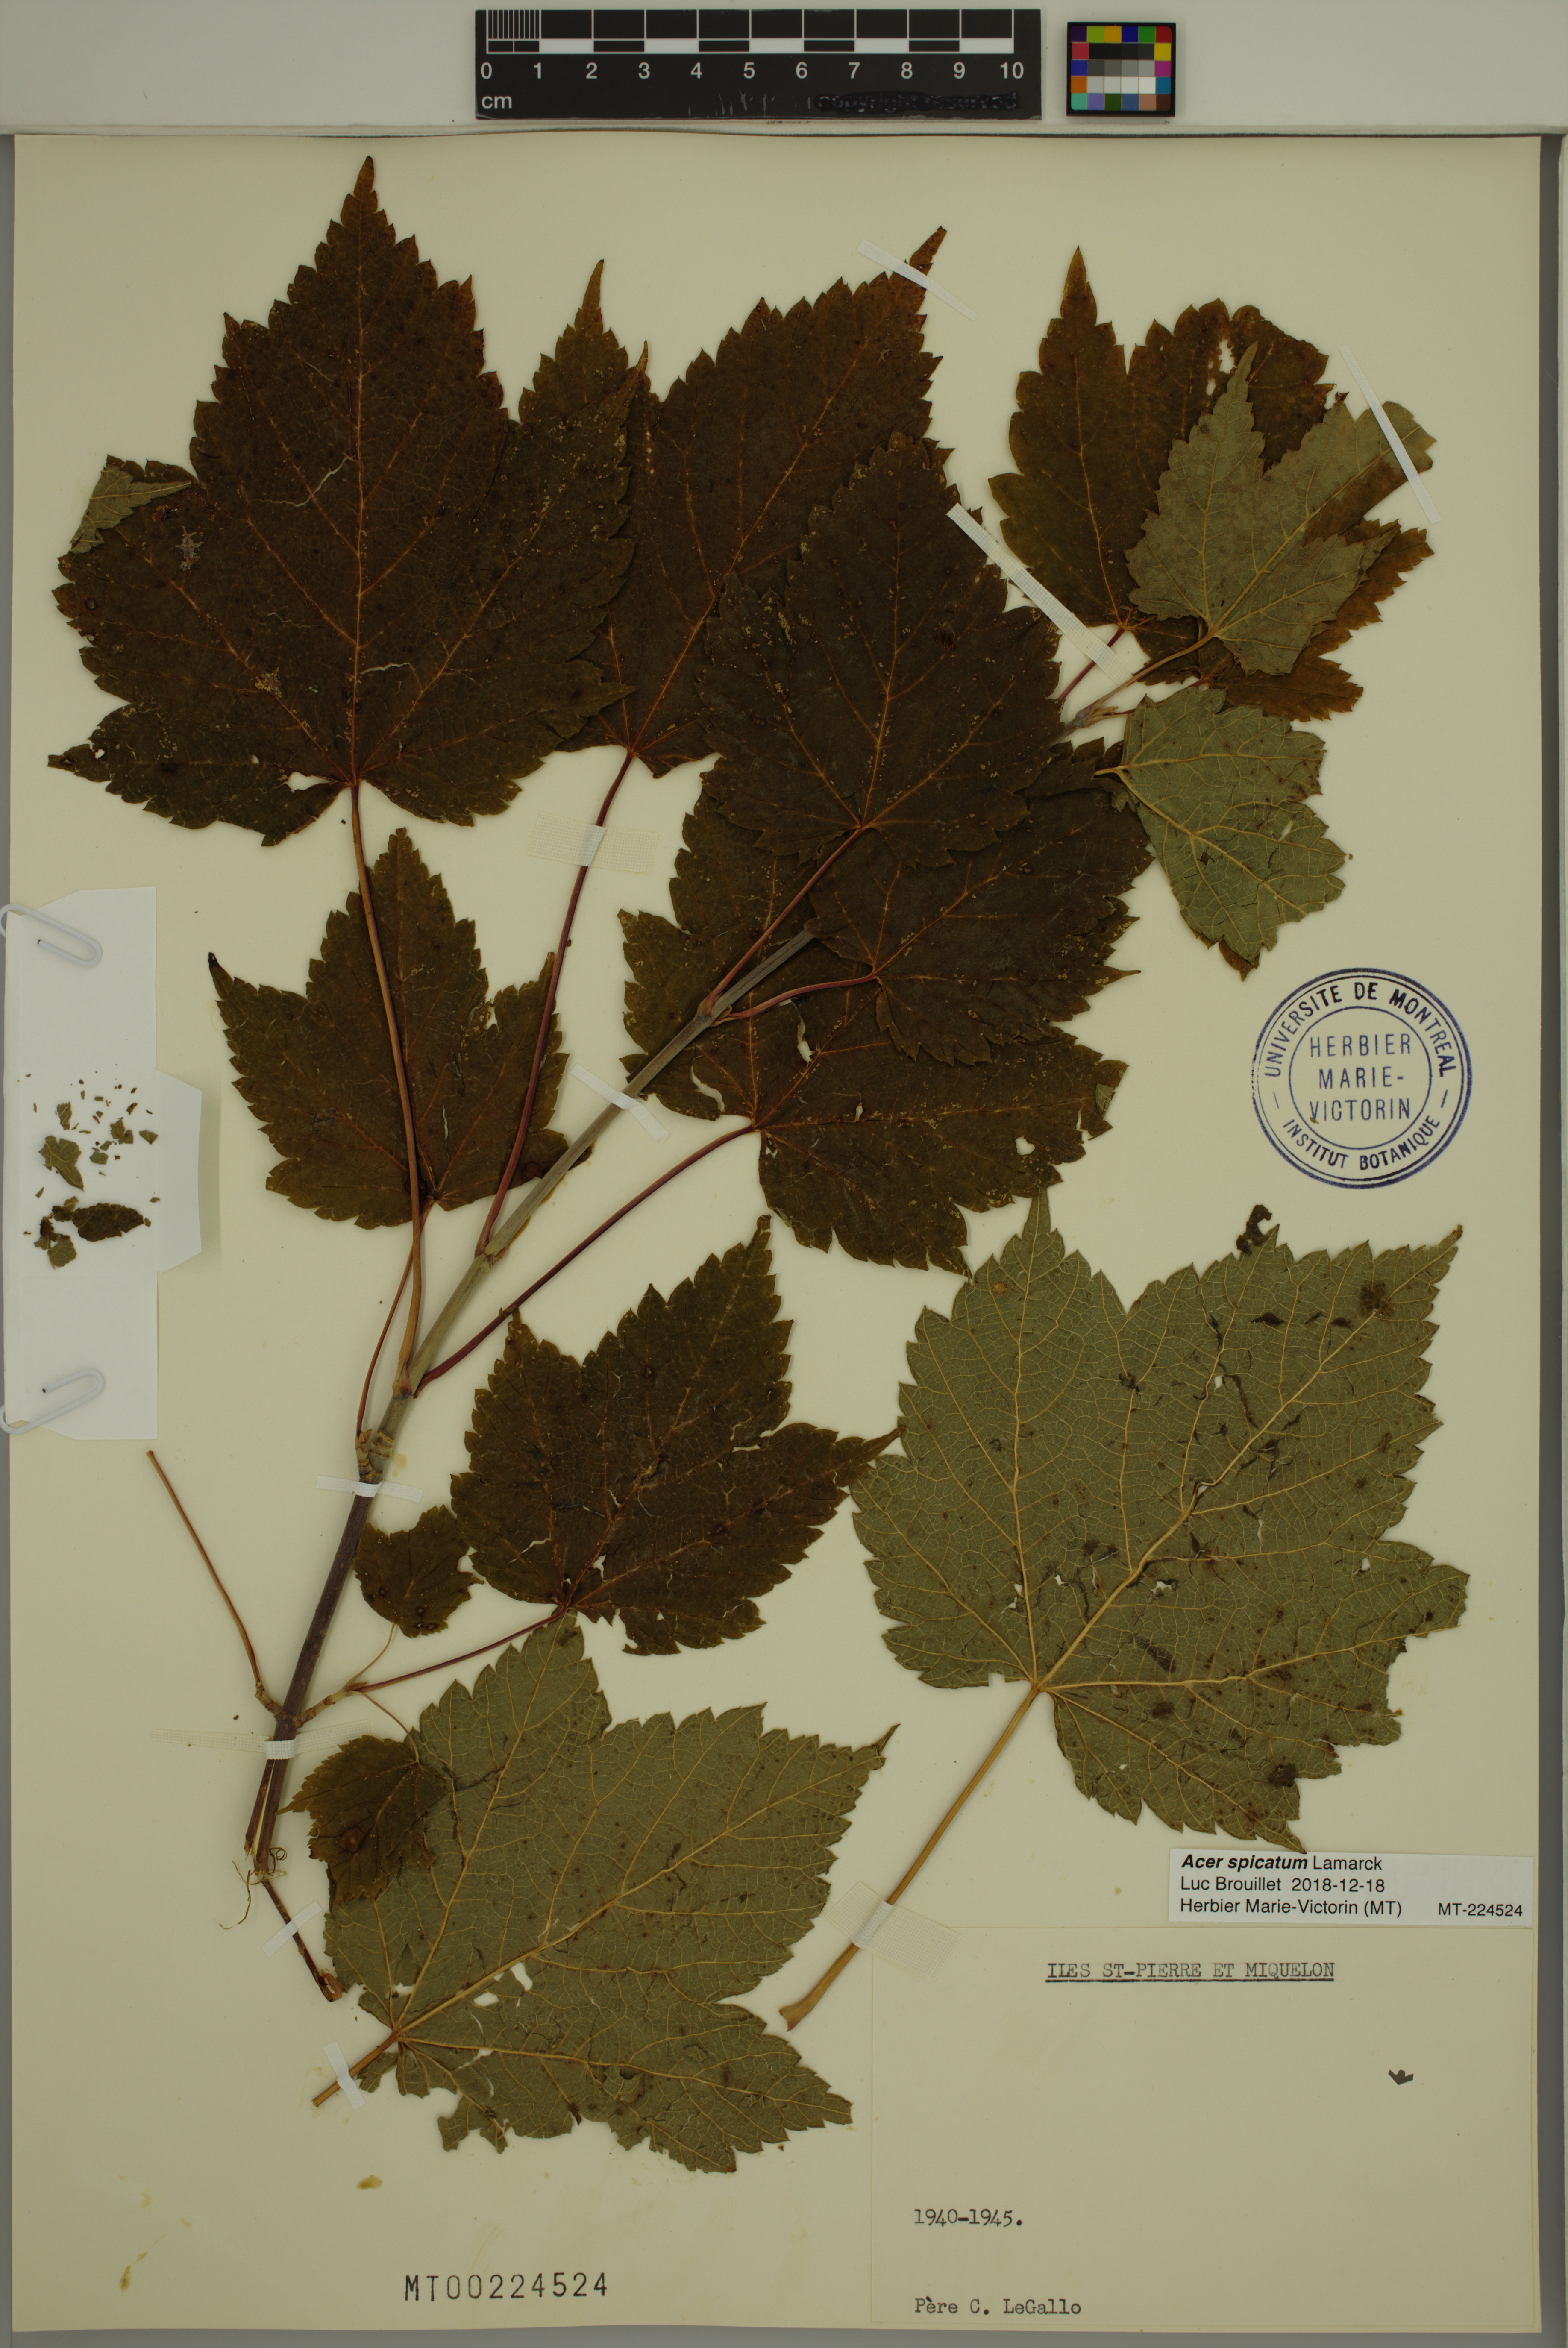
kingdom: Plantae
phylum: Tracheophyta
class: Magnoliopsida
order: Sapindales
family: Sapindaceae
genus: Acer
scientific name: Acer spicatum
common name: Mountain maple
